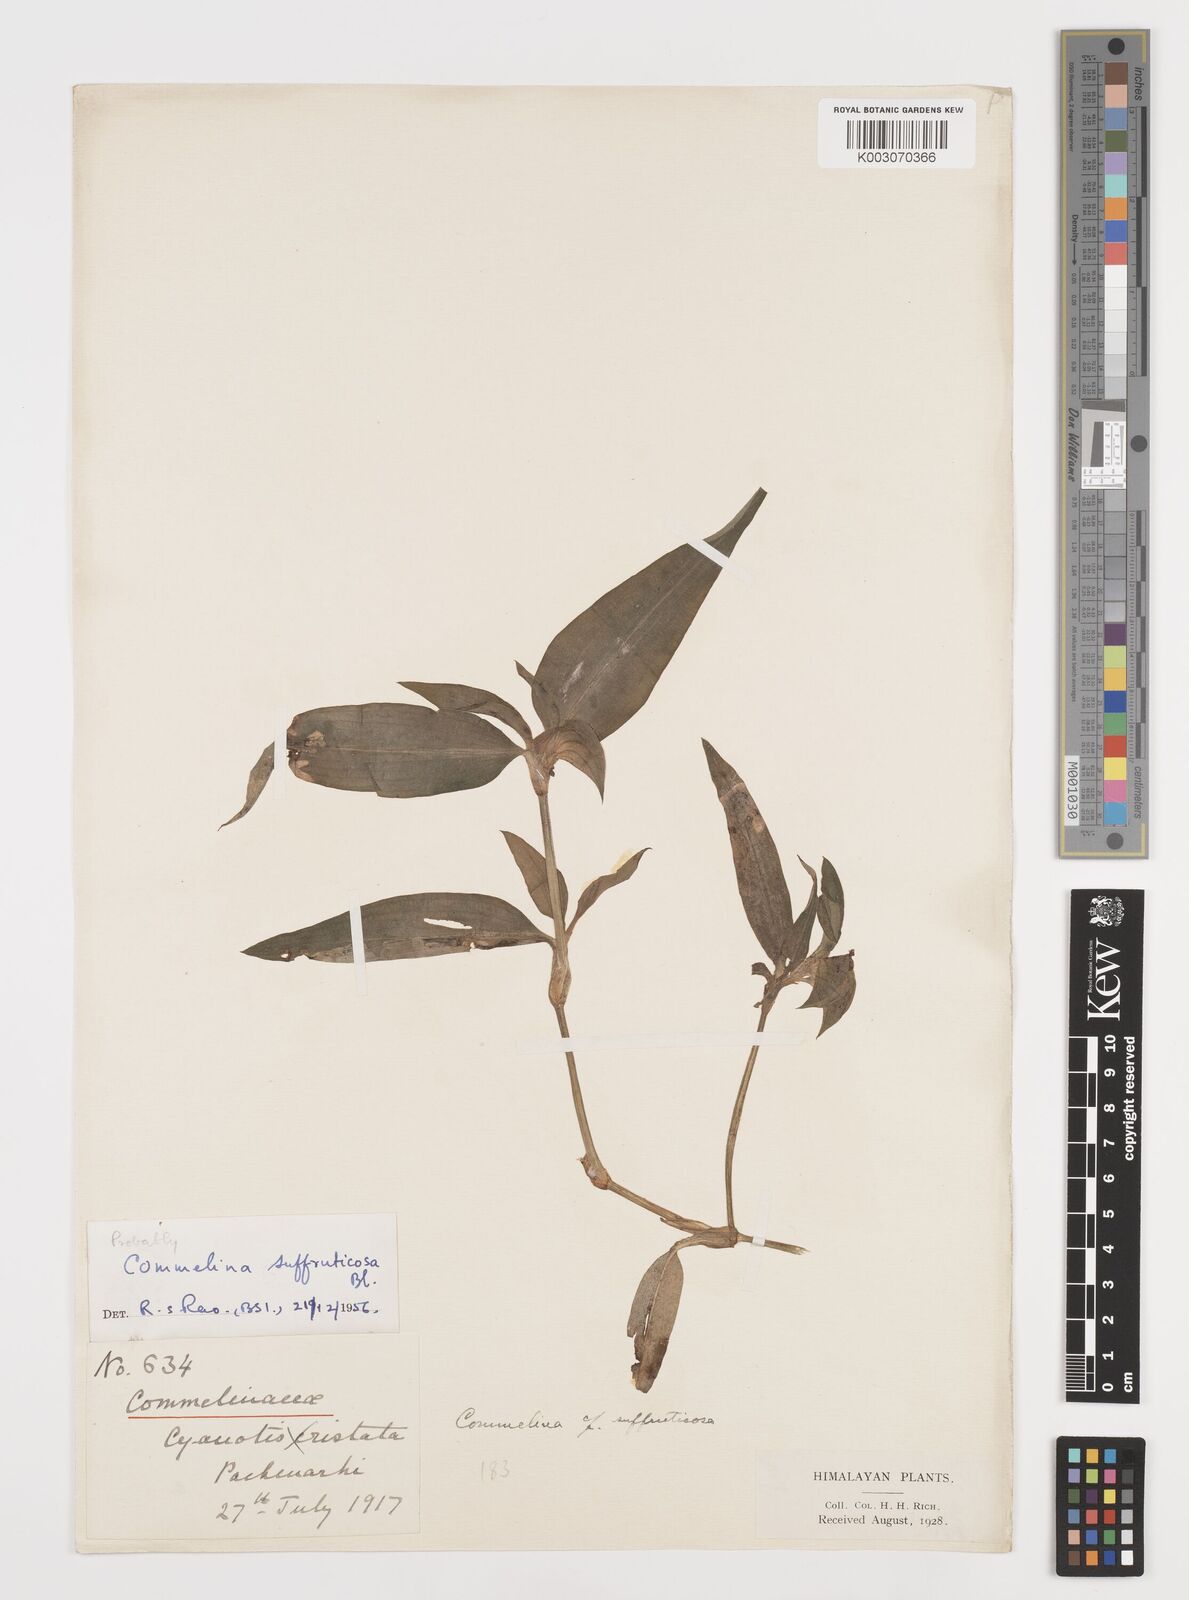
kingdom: Plantae
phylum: Tracheophyta
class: Liliopsida
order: Commelinales
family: Commelinaceae
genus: Commelina
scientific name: Commelina suffruticosa
